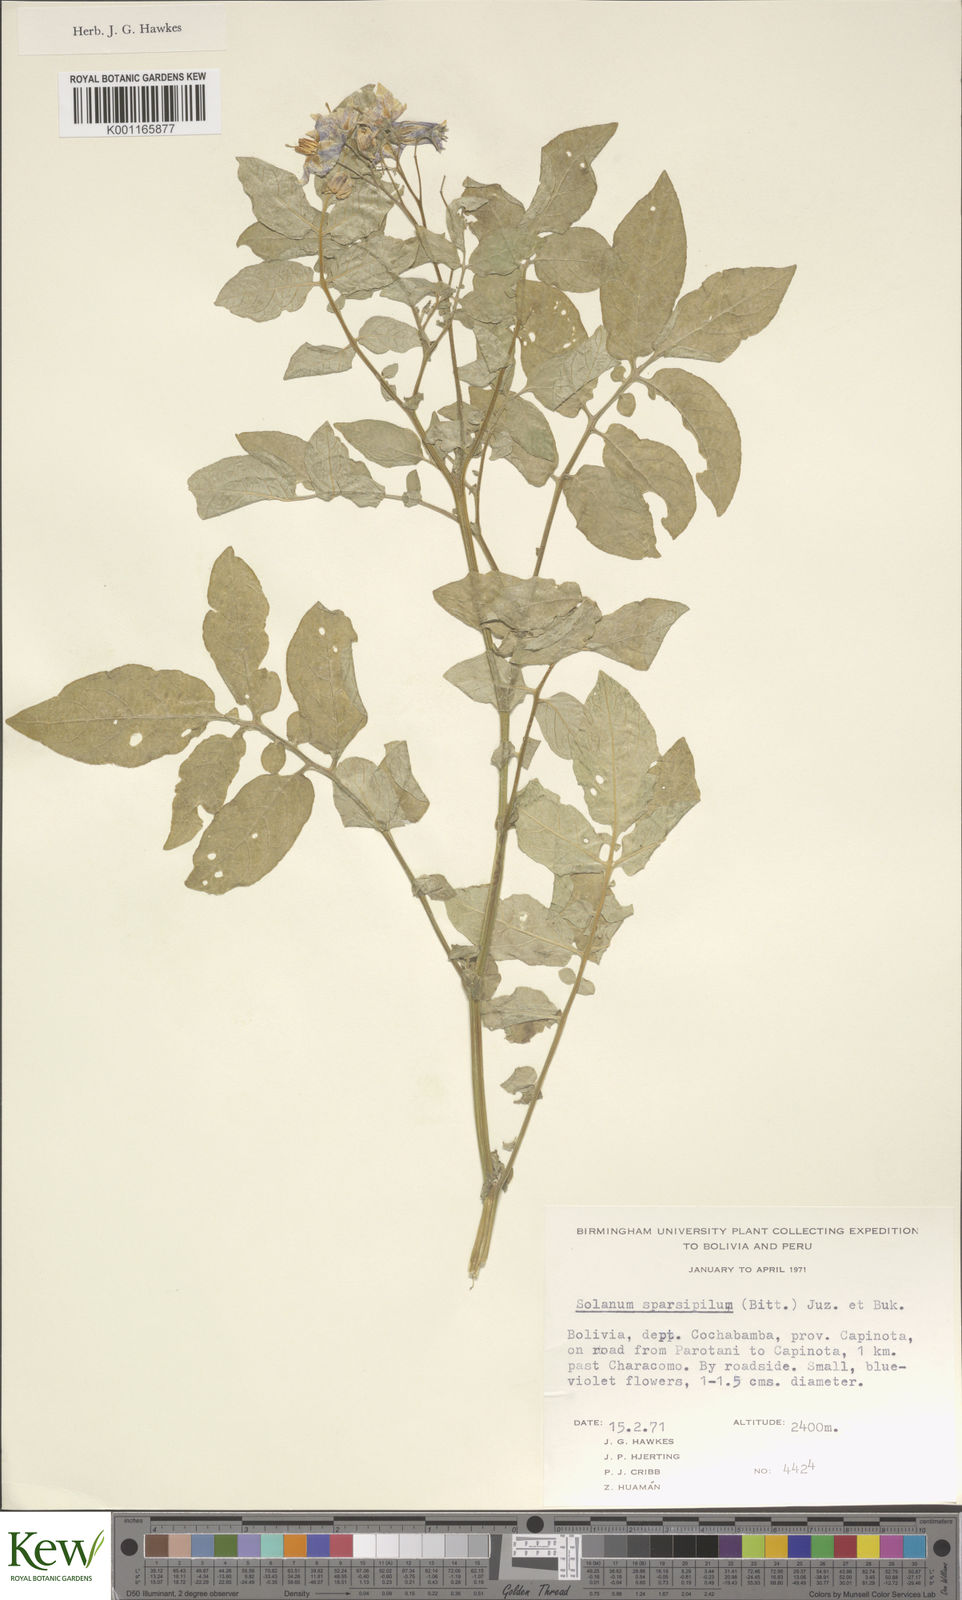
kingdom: Plantae
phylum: Tracheophyta
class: Magnoliopsida
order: Solanales
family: Solanaceae
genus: Solanum
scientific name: Solanum brevicaule
